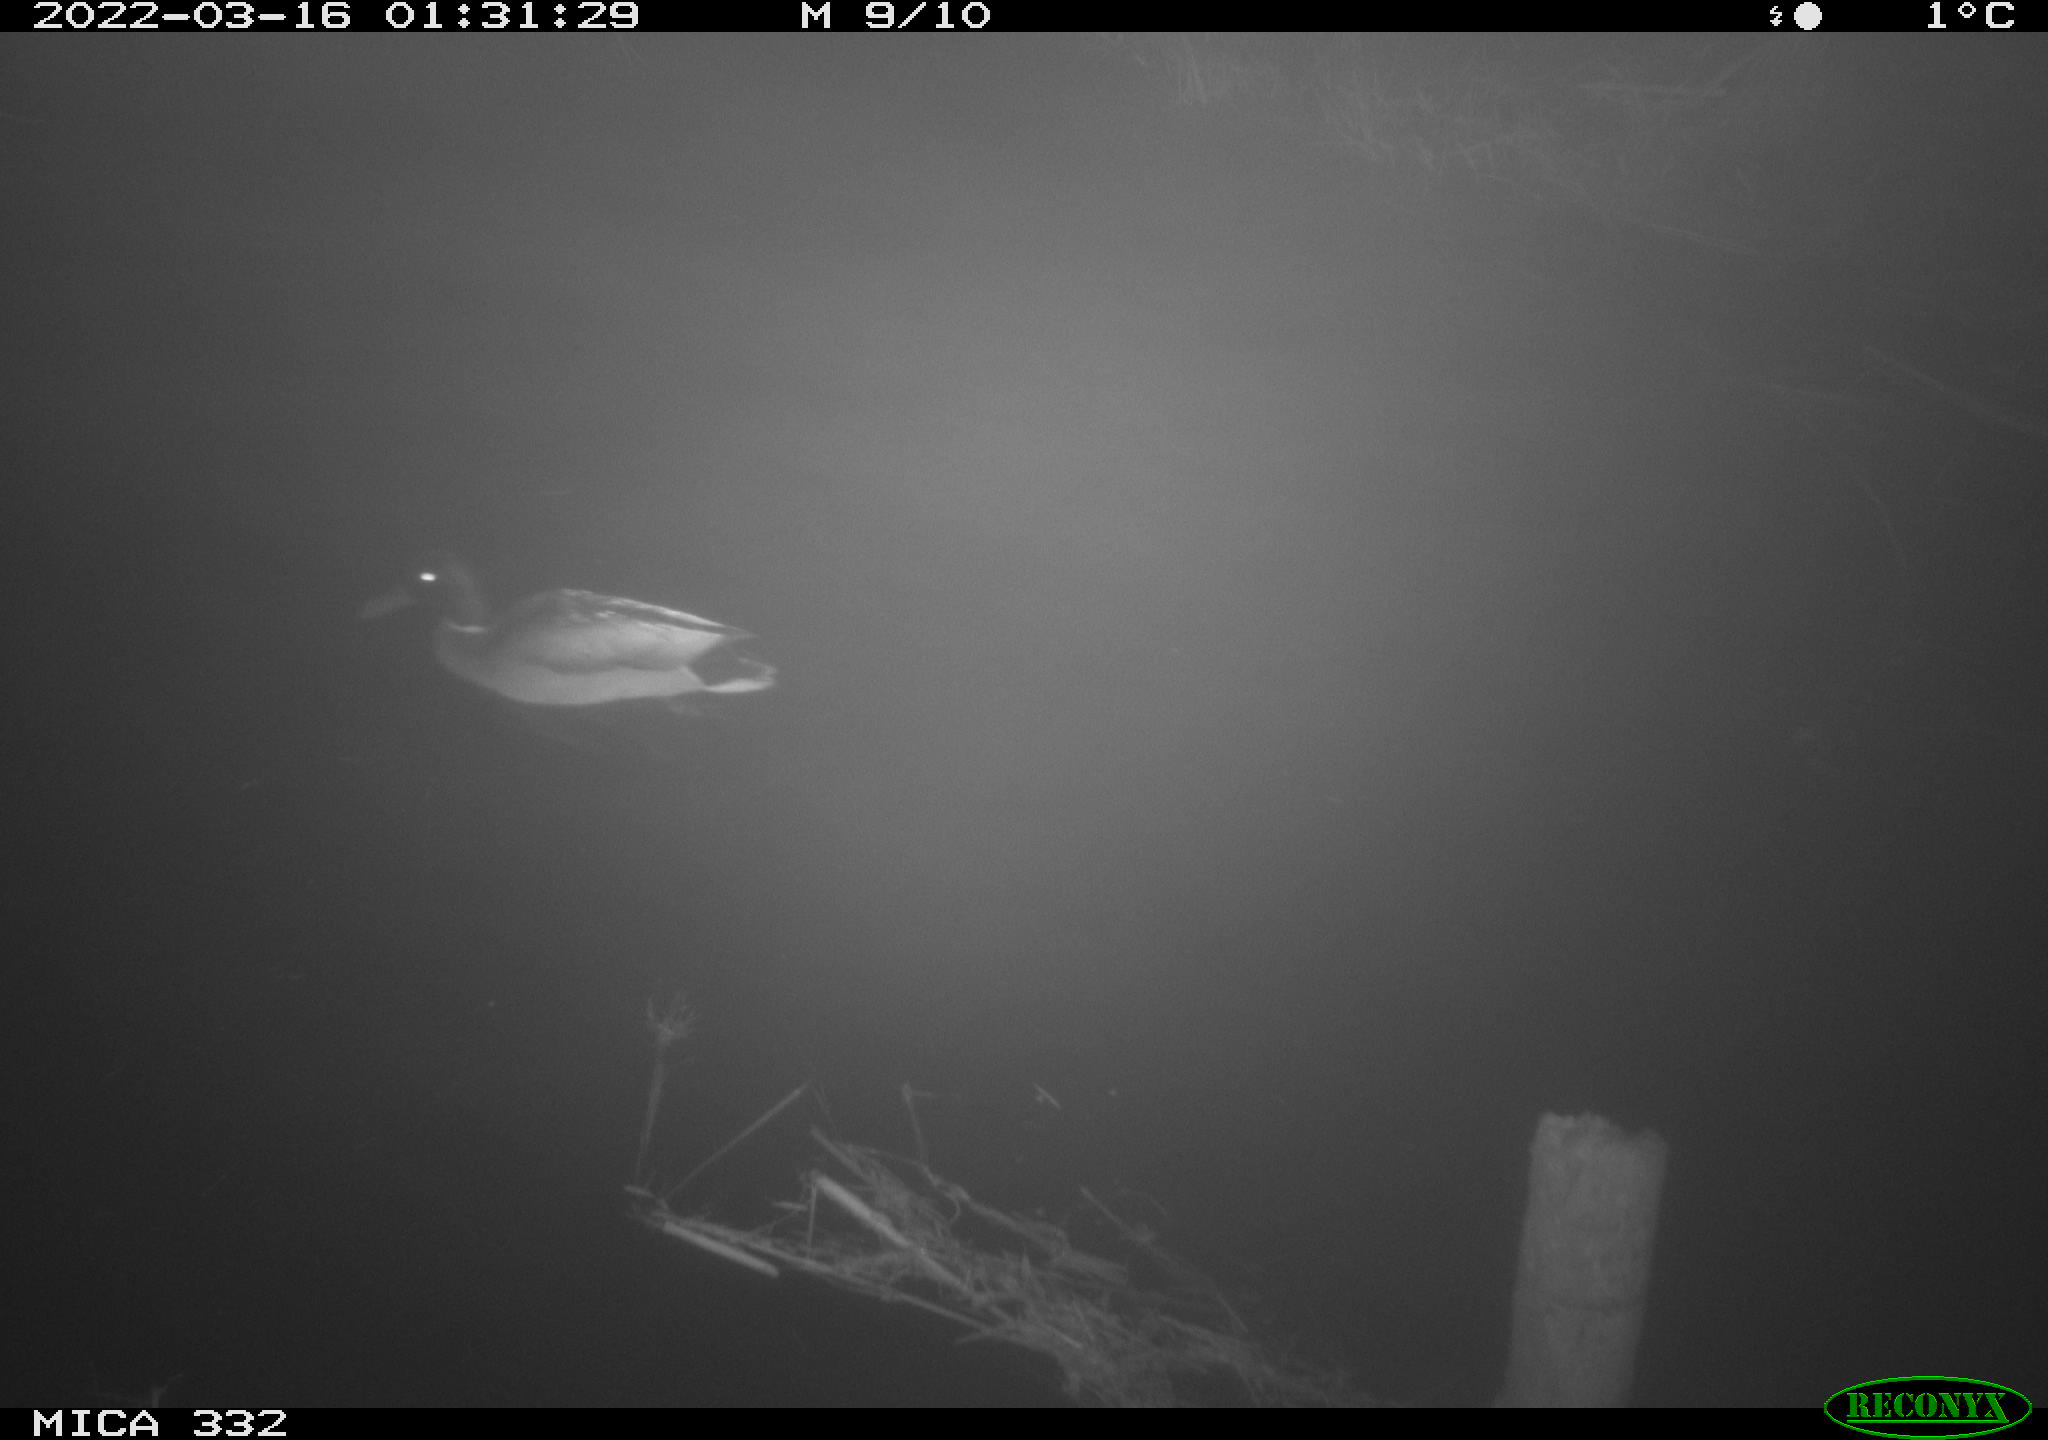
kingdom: Animalia
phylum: Chordata
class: Aves
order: Anseriformes
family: Anatidae
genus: Anas
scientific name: Anas platyrhynchos
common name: Mallard
